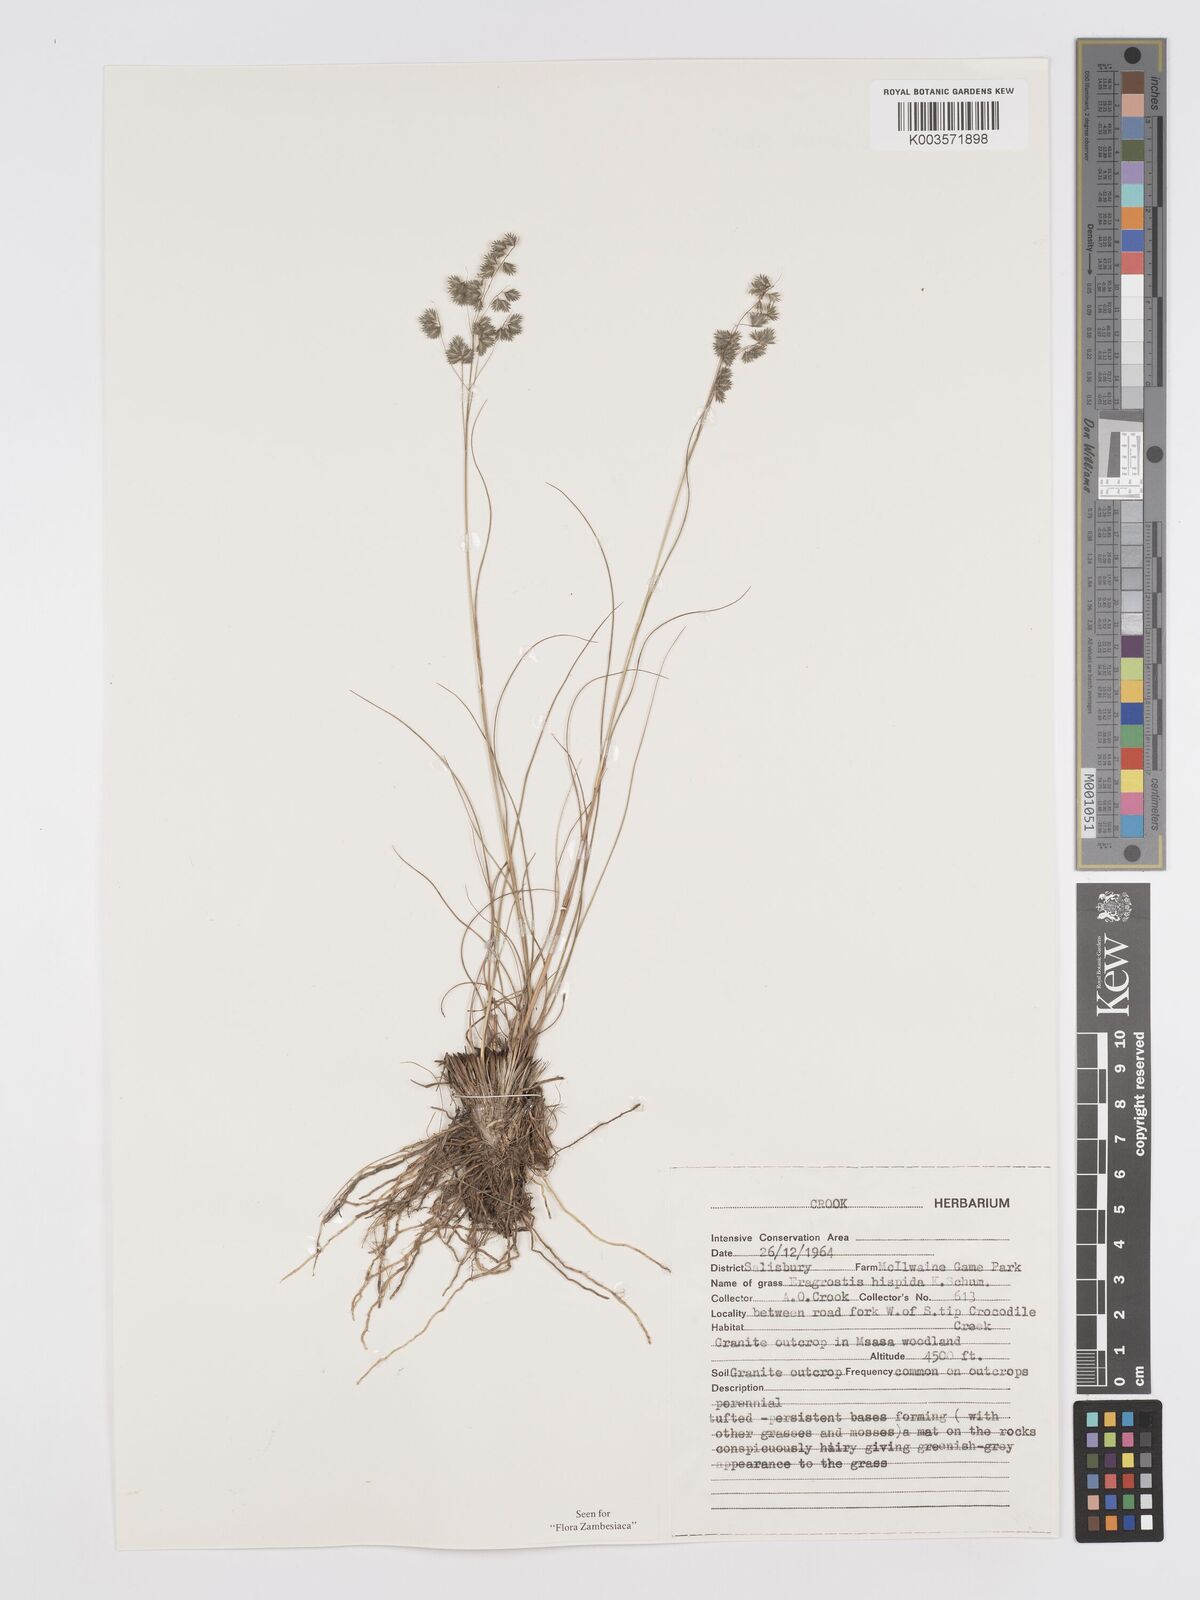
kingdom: Plantae
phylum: Tracheophyta
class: Liliopsida
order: Poales
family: Poaceae
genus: Eragrostis
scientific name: Eragrostis hispida
